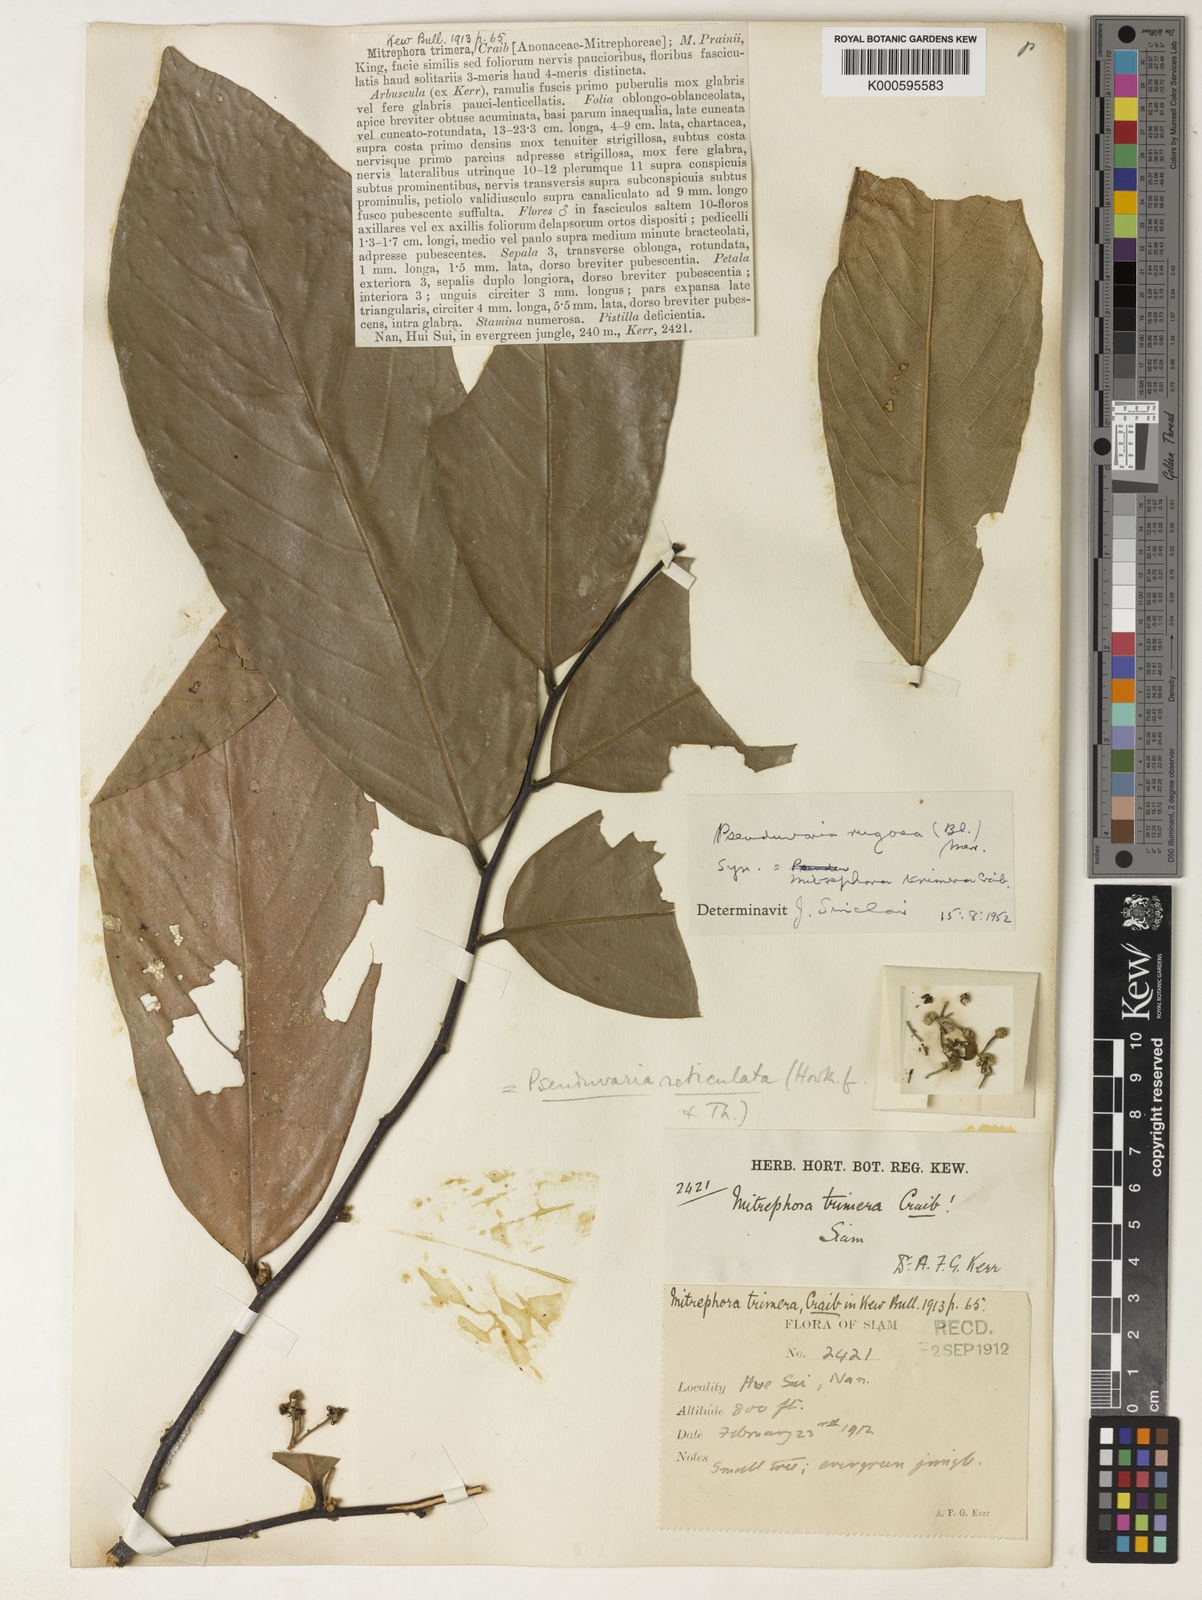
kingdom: Plantae
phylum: Tracheophyta
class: Magnoliopsida
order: Magnoliales
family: Annonaceae
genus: Pseuduvaria
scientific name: Pseuduvaria rugosa
